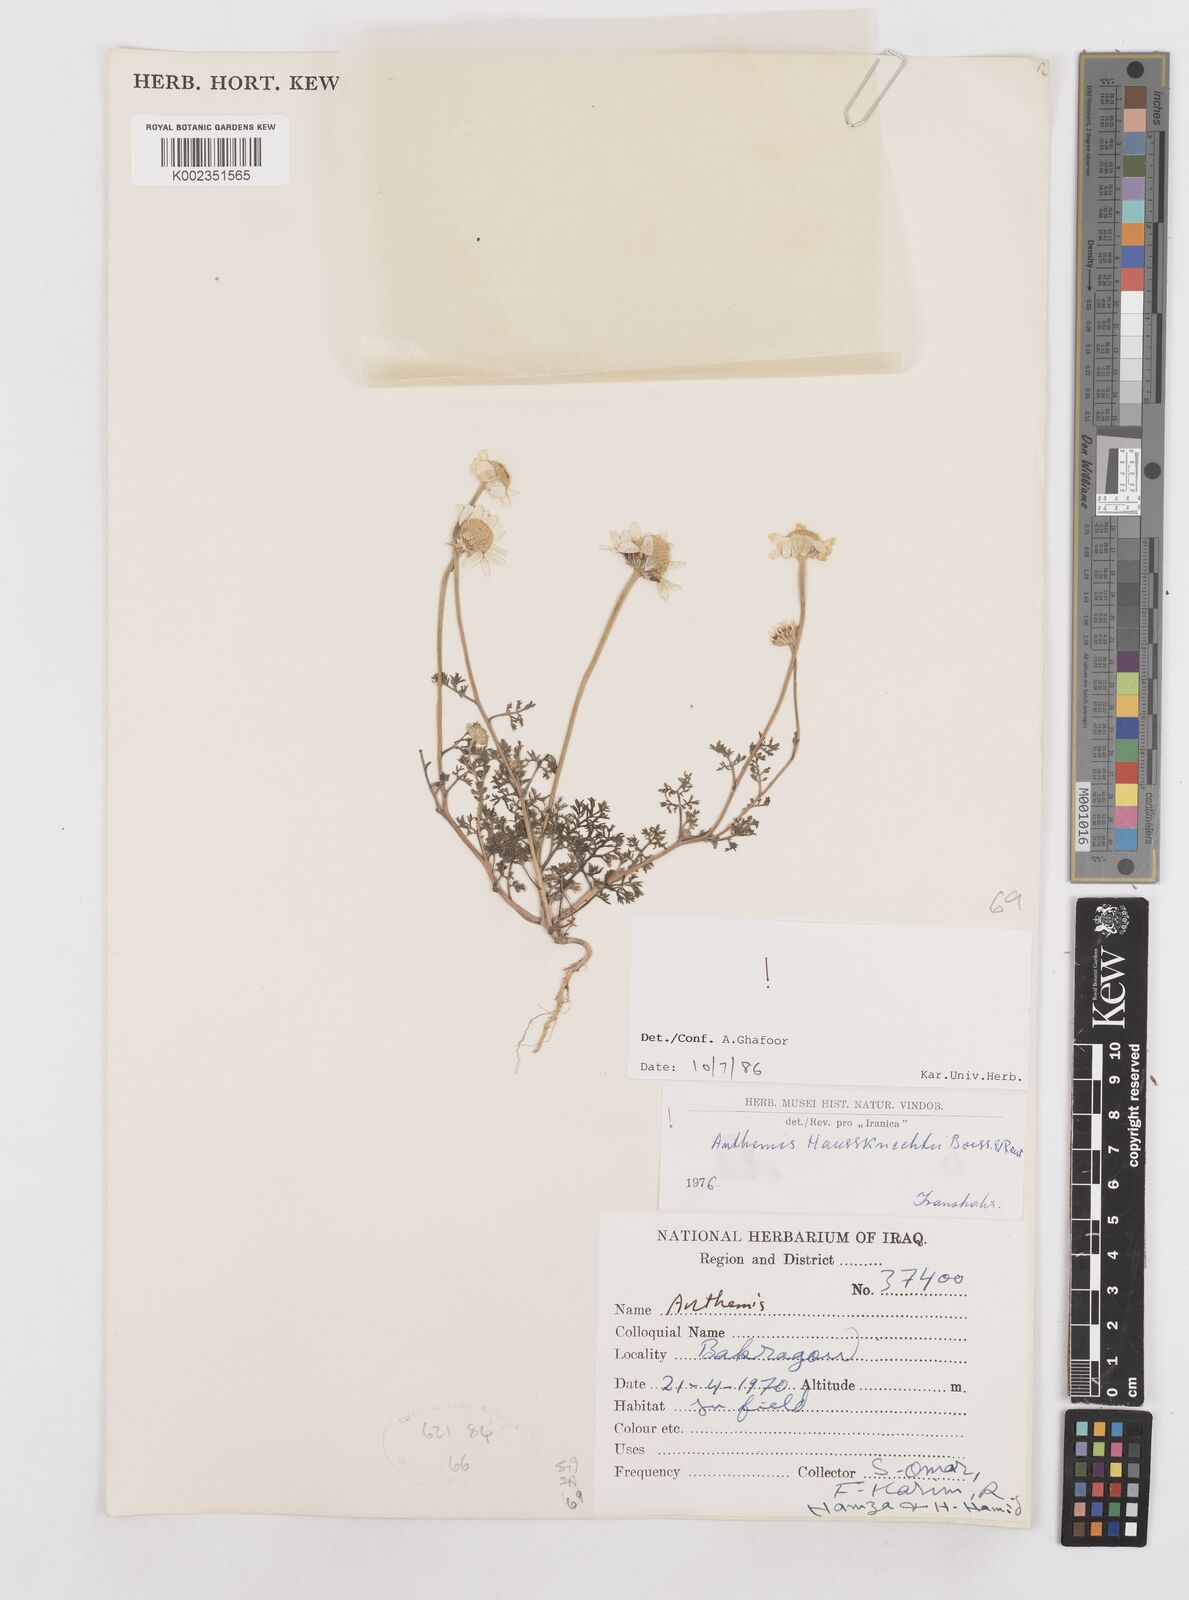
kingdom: Plantae
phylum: Tracheophyta
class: Magnoliopsida
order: Asterales
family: Asteraceae
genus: Anthemis
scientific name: Anthemis haussknechtii
